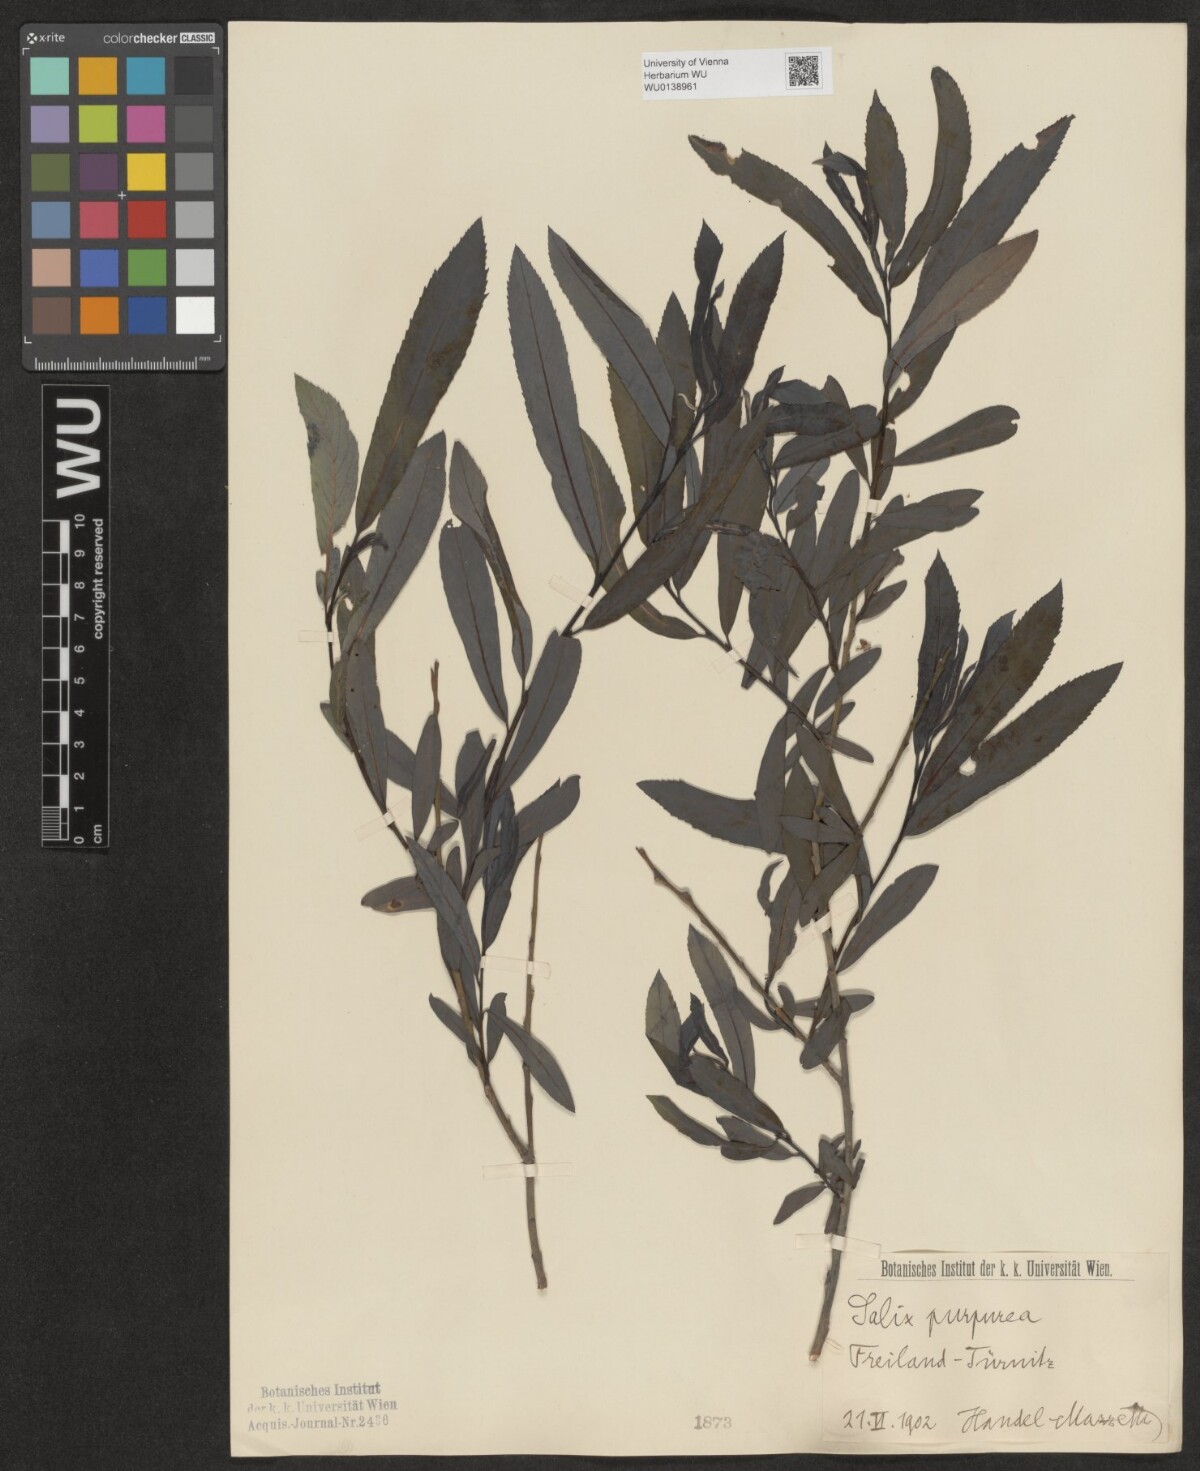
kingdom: Plantae
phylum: Tracheophyta
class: Magnoliopsida
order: Malpighiales
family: Salicaceae
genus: Salix
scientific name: Salix purpurea
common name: Purple willow
